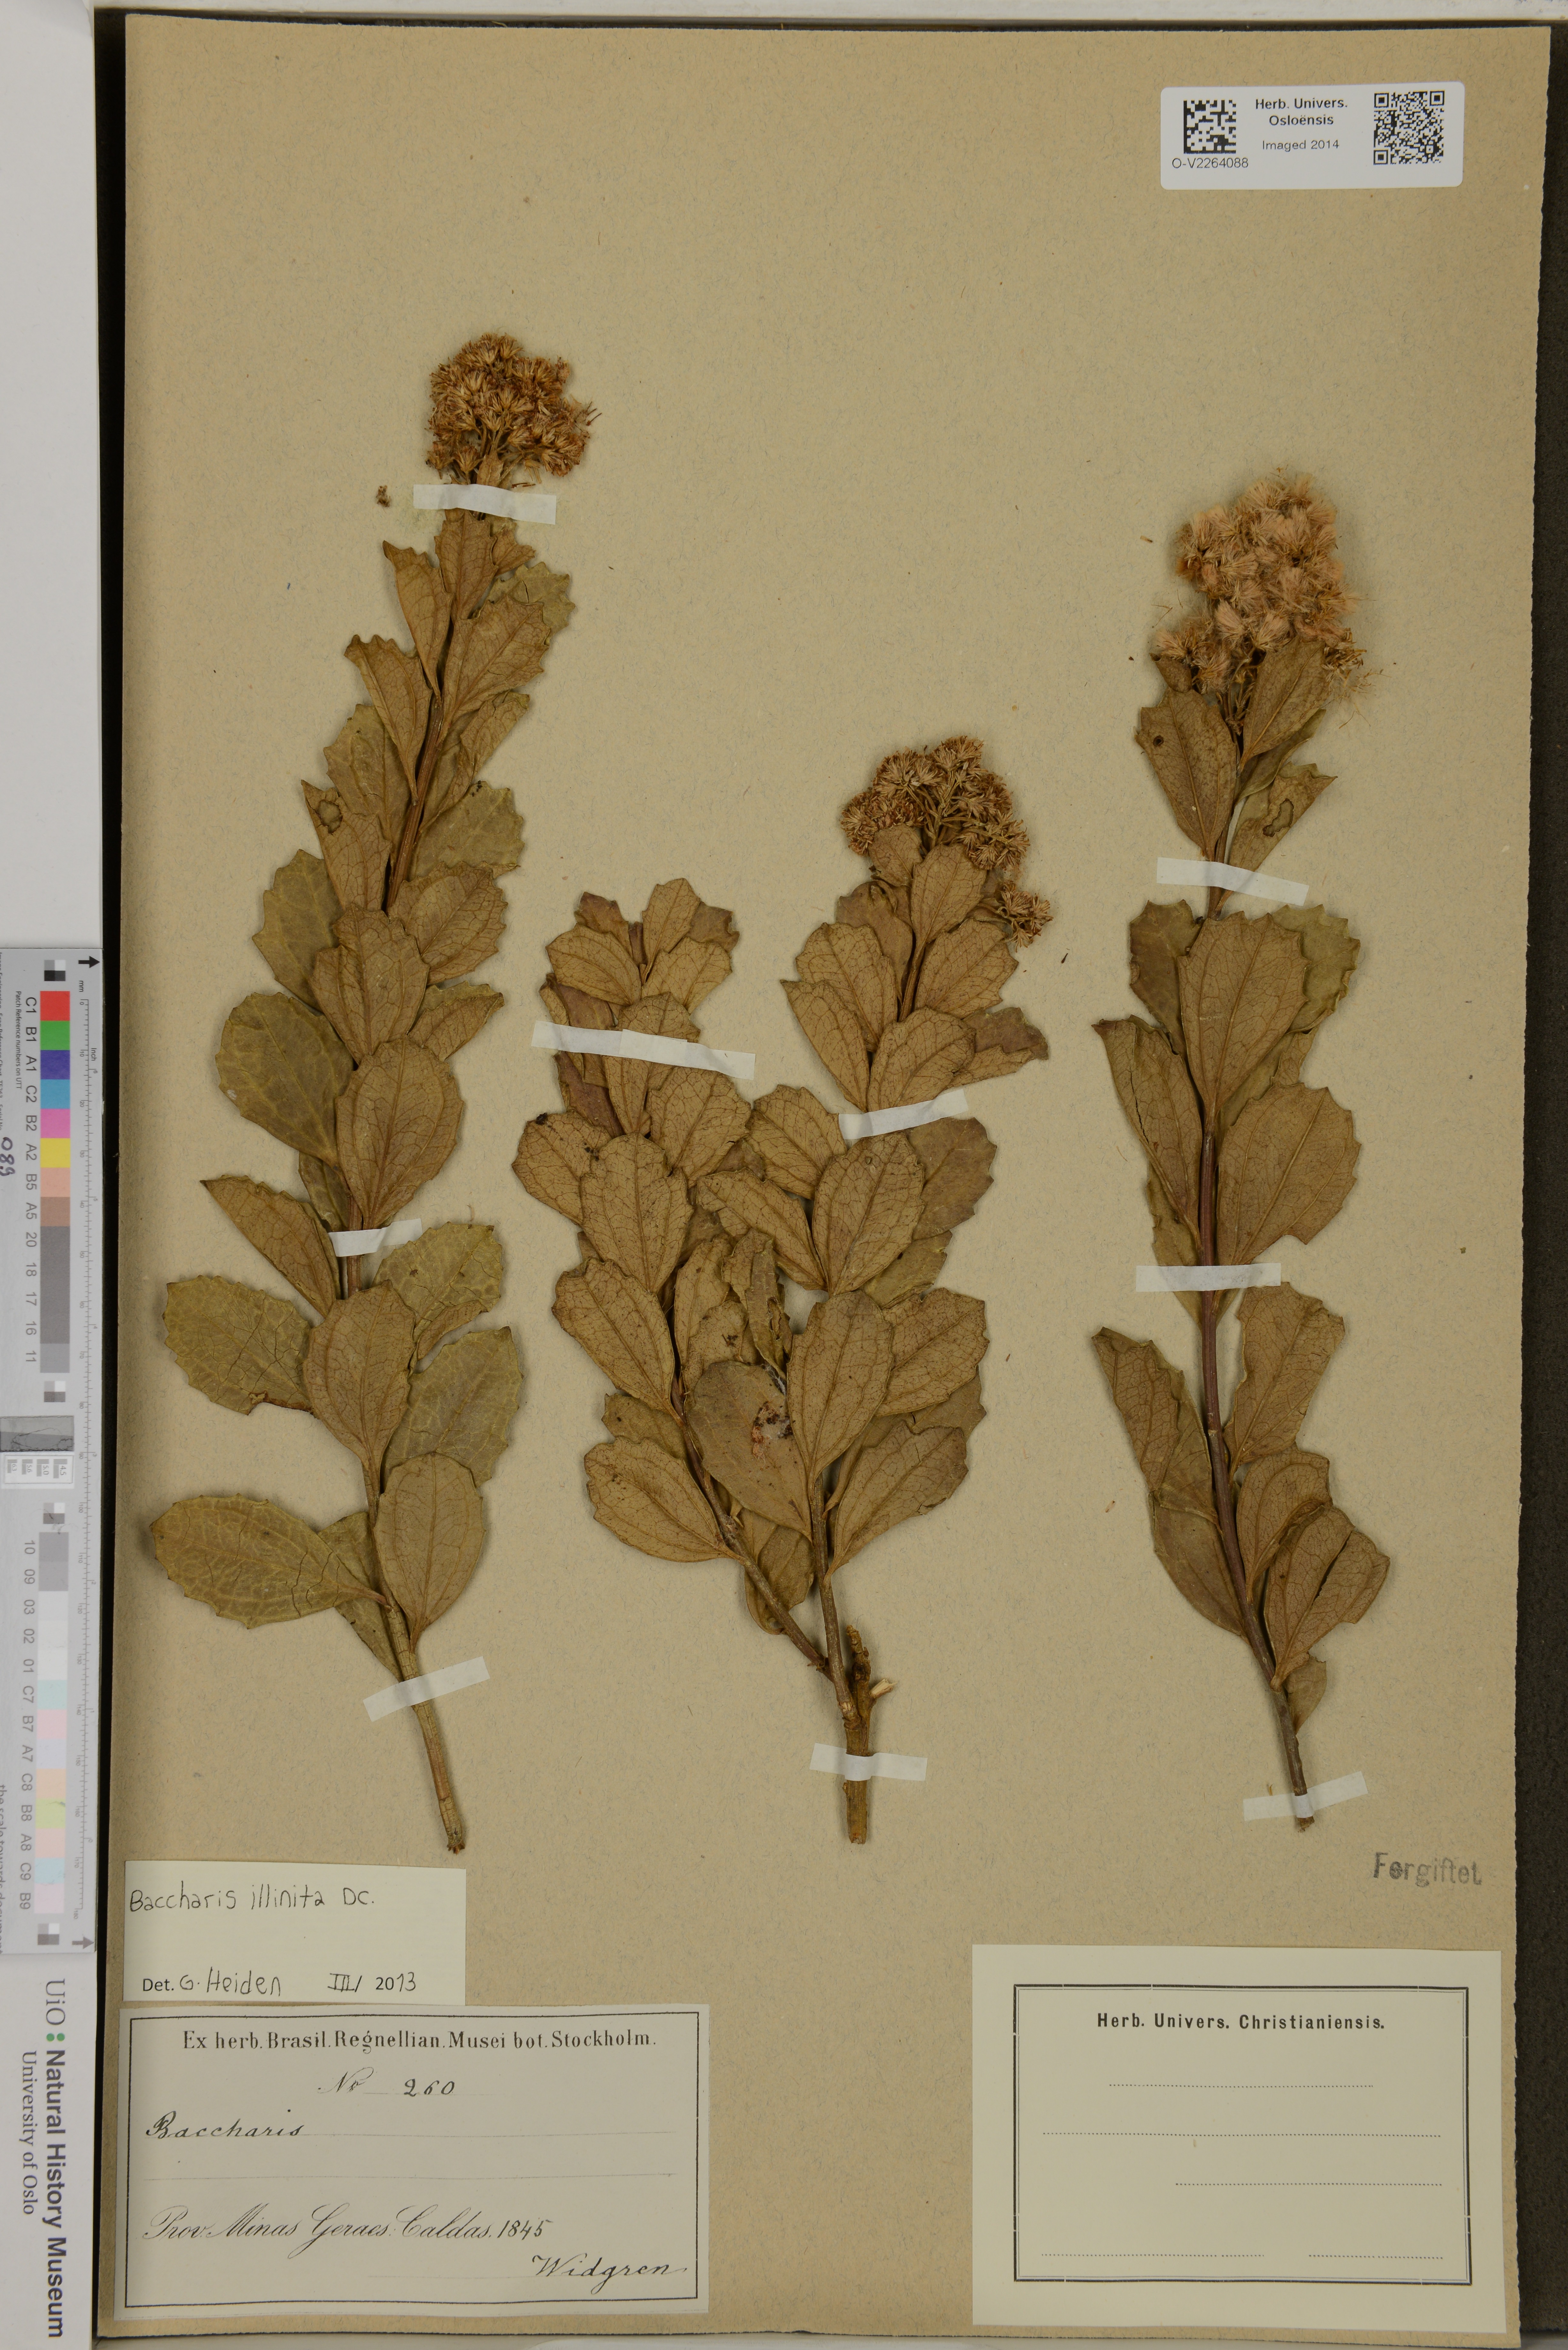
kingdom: Plantae
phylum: Tracheophyta
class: Magnoliopsida
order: Asterales
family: Asteraceae
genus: Baccharis
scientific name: Baccharis tridentata
